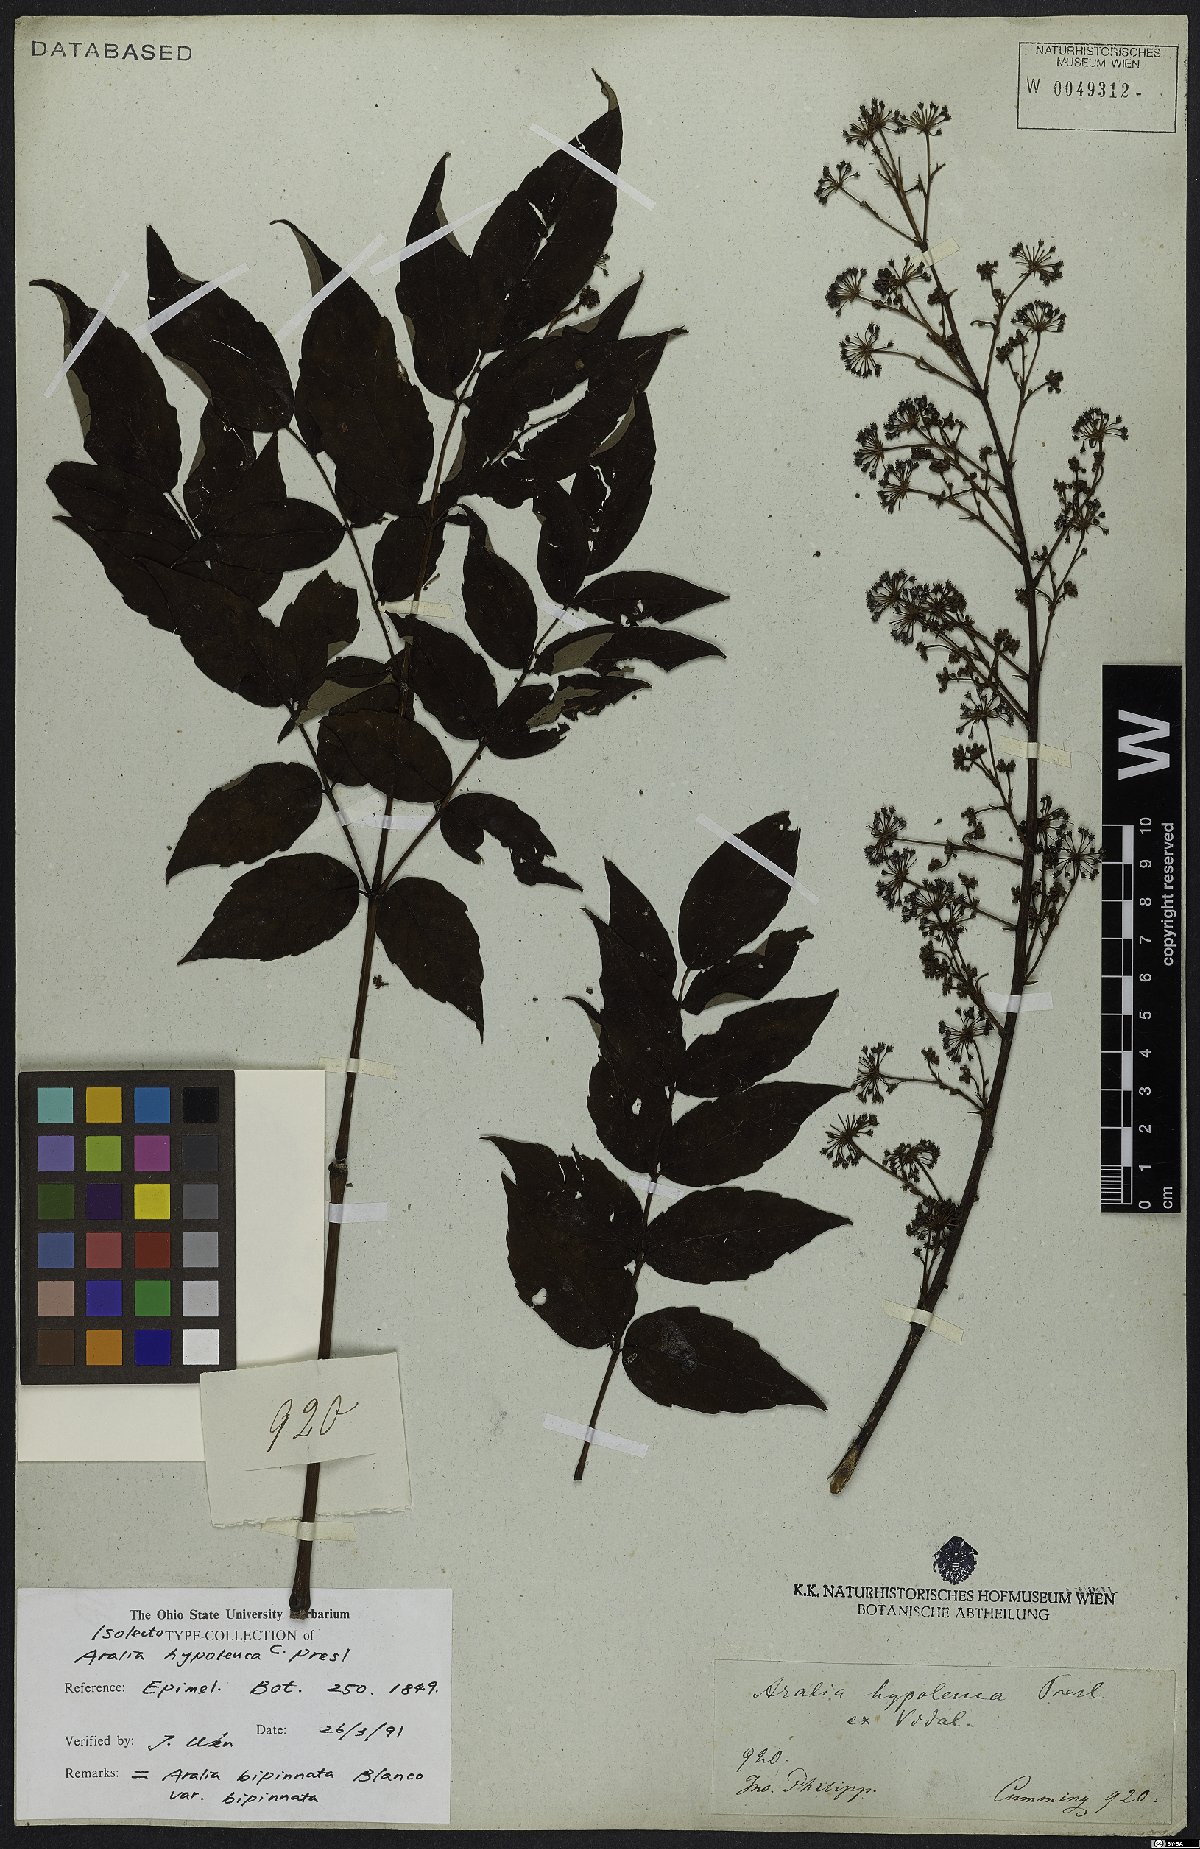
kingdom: Plantae
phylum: Tracheophyta
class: Magnoliopsida
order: Apiales
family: Araliaceae
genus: Aralia
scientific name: Aralia bipinnata
